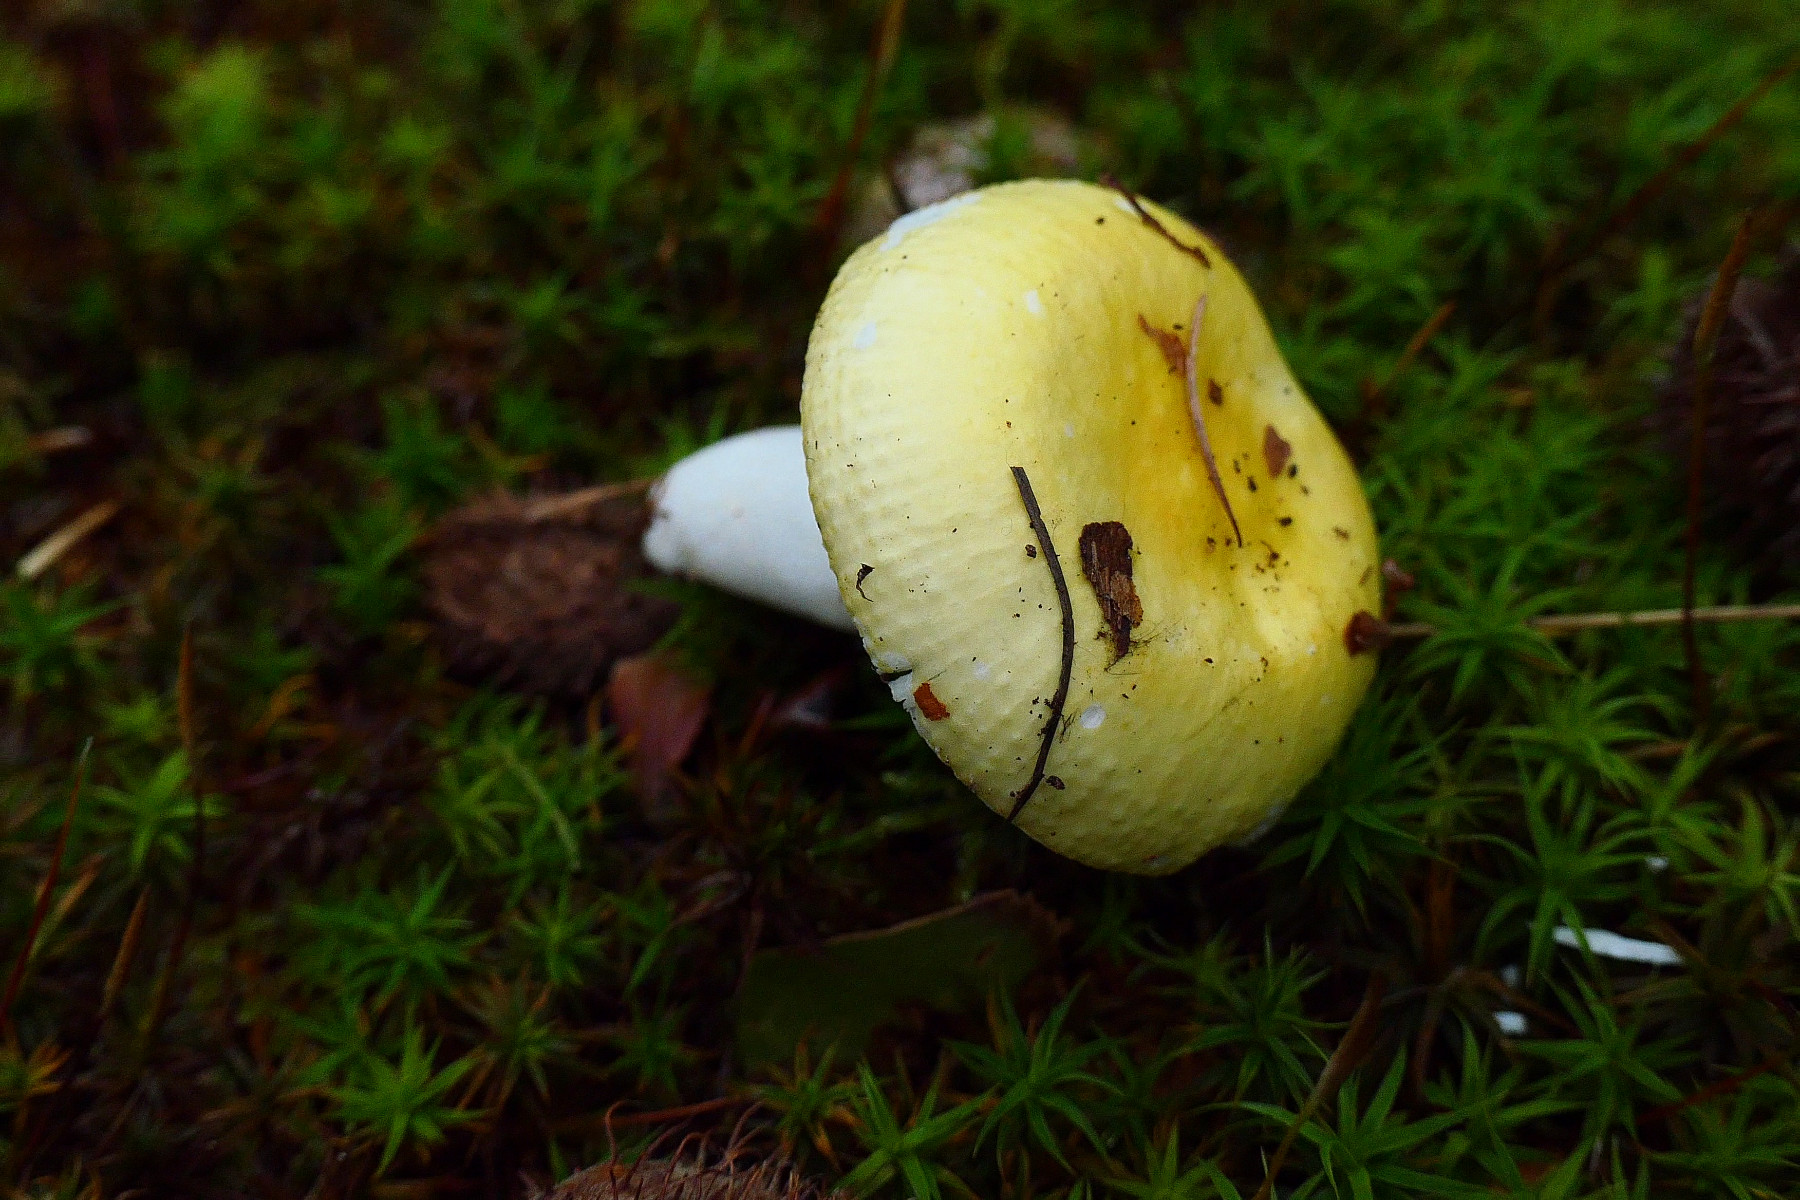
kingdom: Fungi
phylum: Basidiomycota
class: Agaricomycetes
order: Russulales
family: Russulaceae
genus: Russula
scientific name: Russula solaris
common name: sol-skørhat
